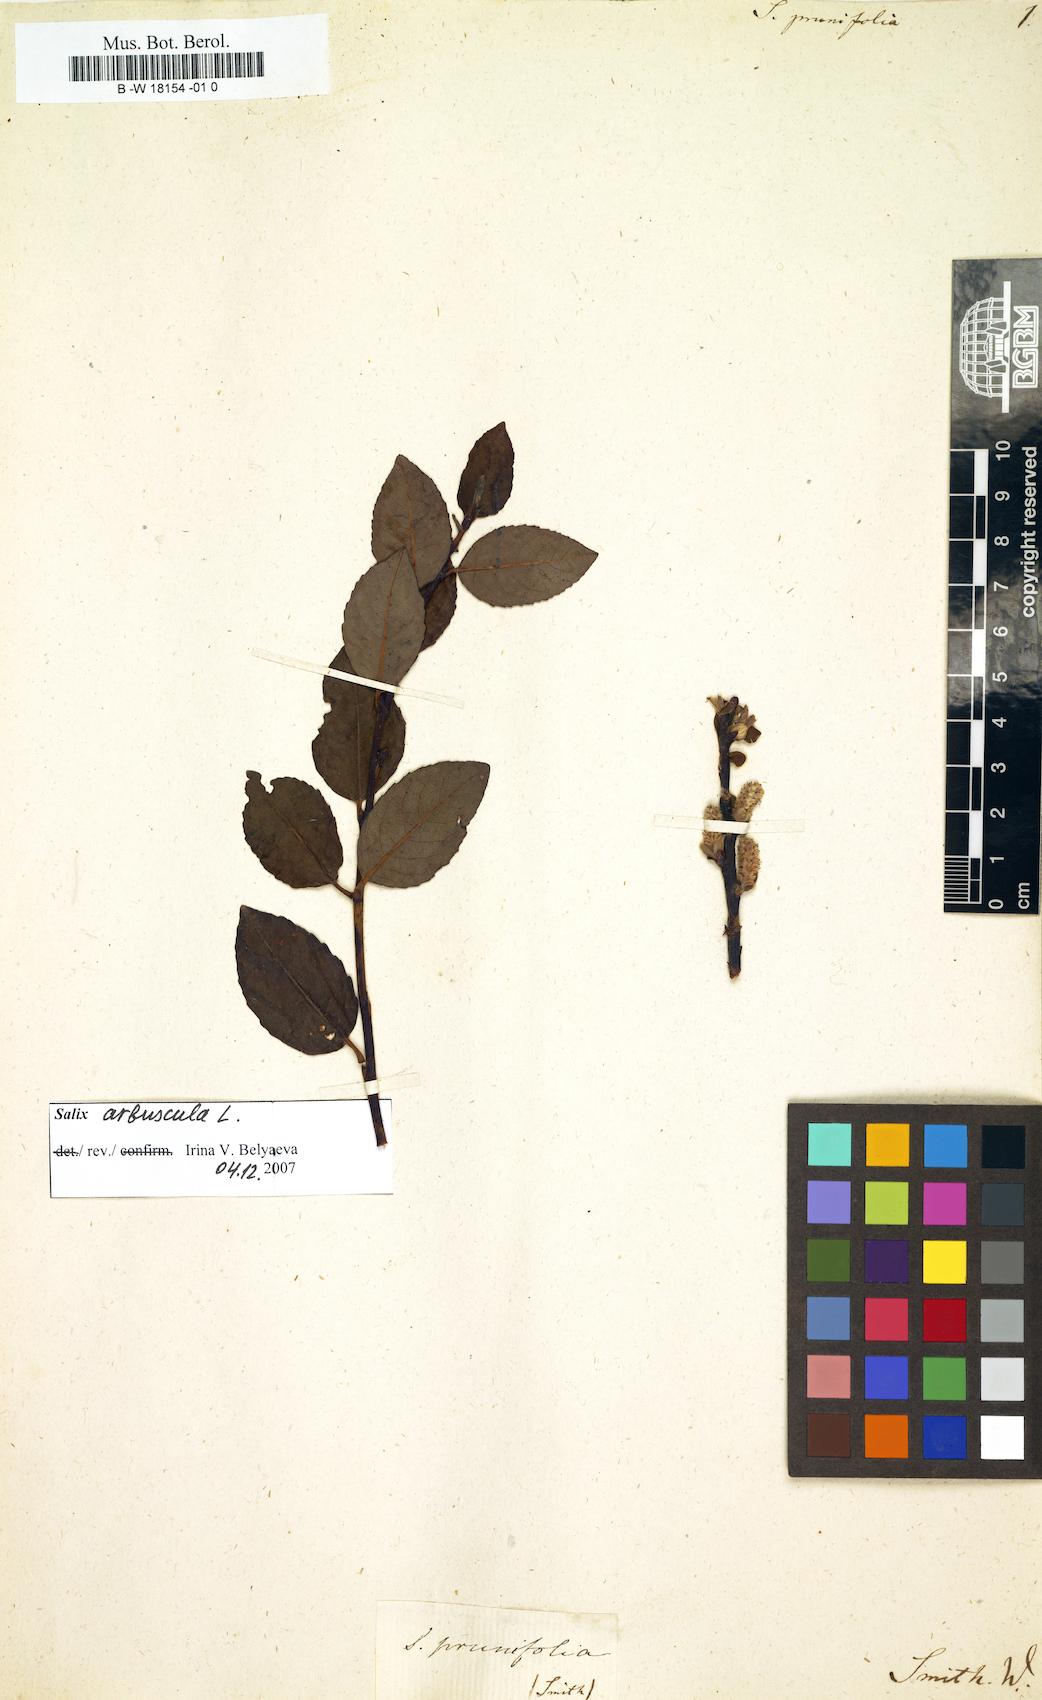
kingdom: Plantae
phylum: Tracheophyta
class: Magnoliopsida
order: Malpighiales
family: Salicaceae
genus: Salix
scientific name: Salix karelinii
